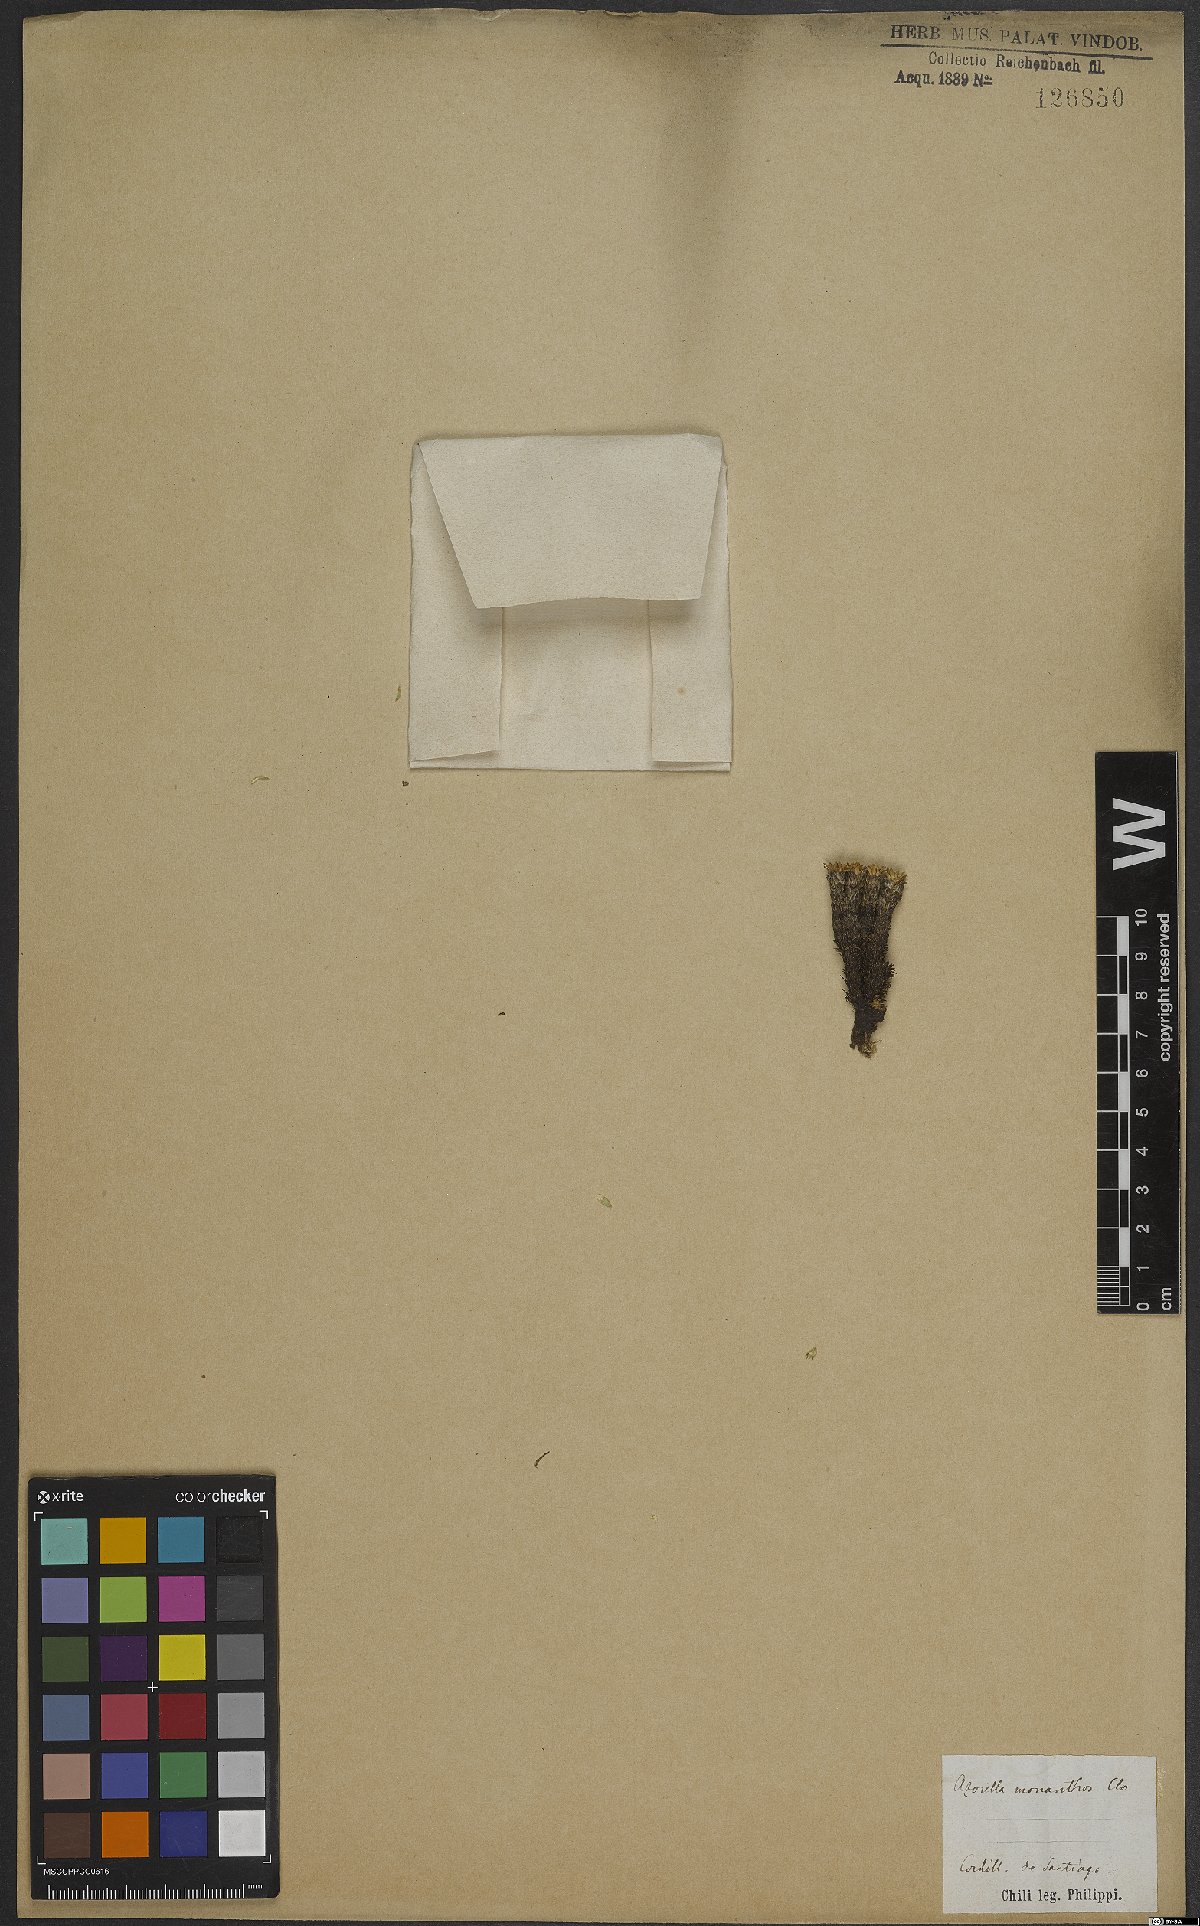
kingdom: Plantae
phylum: Tracheophyta
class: Magnoliopsida
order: Apiales
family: Apiaceae
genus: Azorella
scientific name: Azorella monantha
